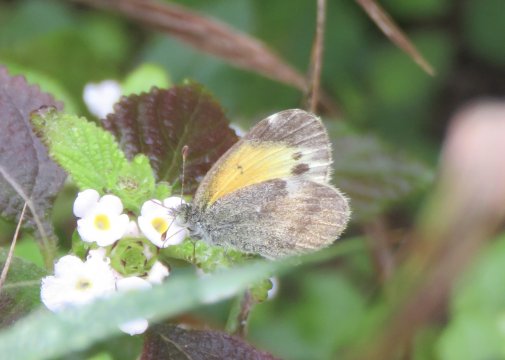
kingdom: Animalia
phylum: Arthropoda
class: Insecta
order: Lepidoptera
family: Pieridae
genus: Nathalis
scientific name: Nathalis iole
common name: Dainty Sulphur
